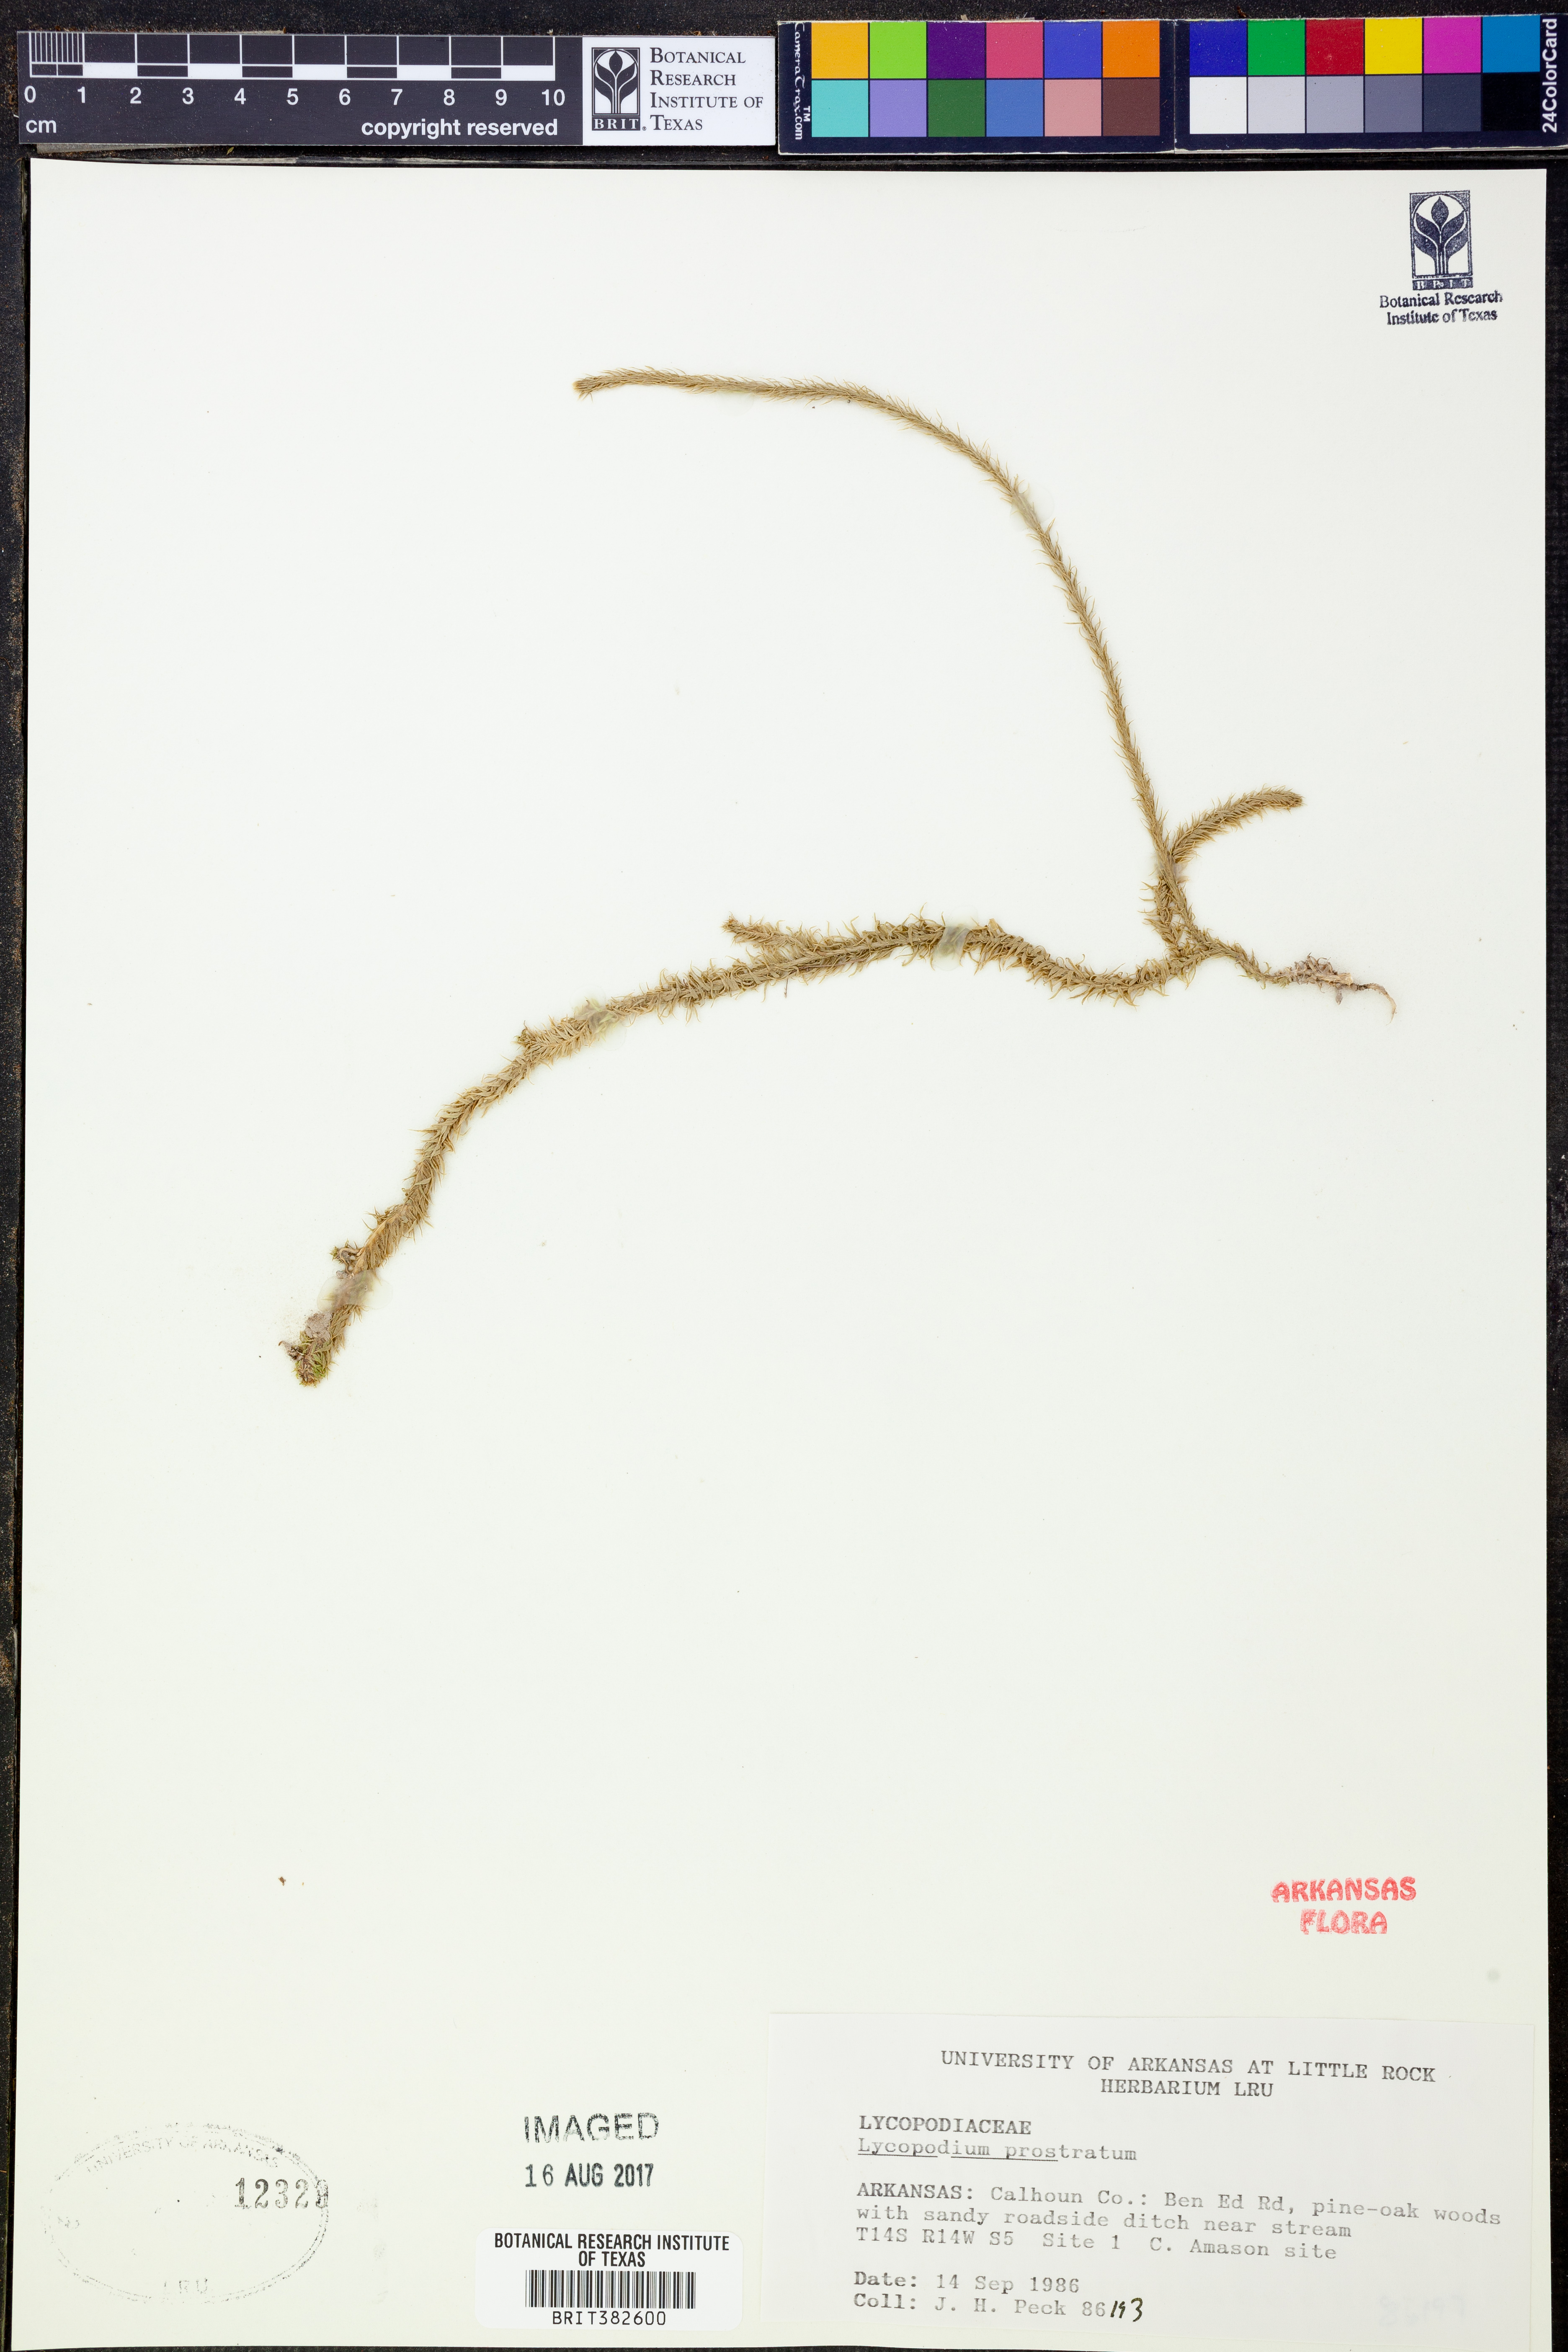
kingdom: Plantae
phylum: Tracheophyta
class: Lycopodiopsida
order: Lycopodiales
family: Lycopodiaceae
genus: Lycopodiella
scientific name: Lycopodiella prostrata
